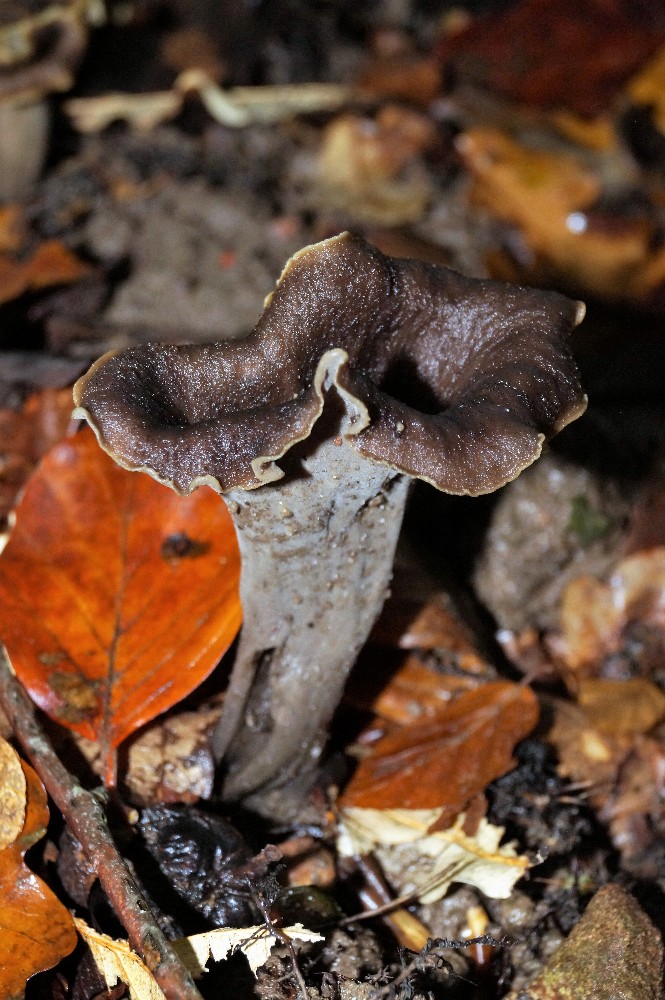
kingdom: Fungi
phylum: Basidiomycota
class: Agaricomycetes
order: Cantharellales
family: Hydnaceae
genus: Craterellus
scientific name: Craterellus cornucopioides
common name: trompetsvamp
